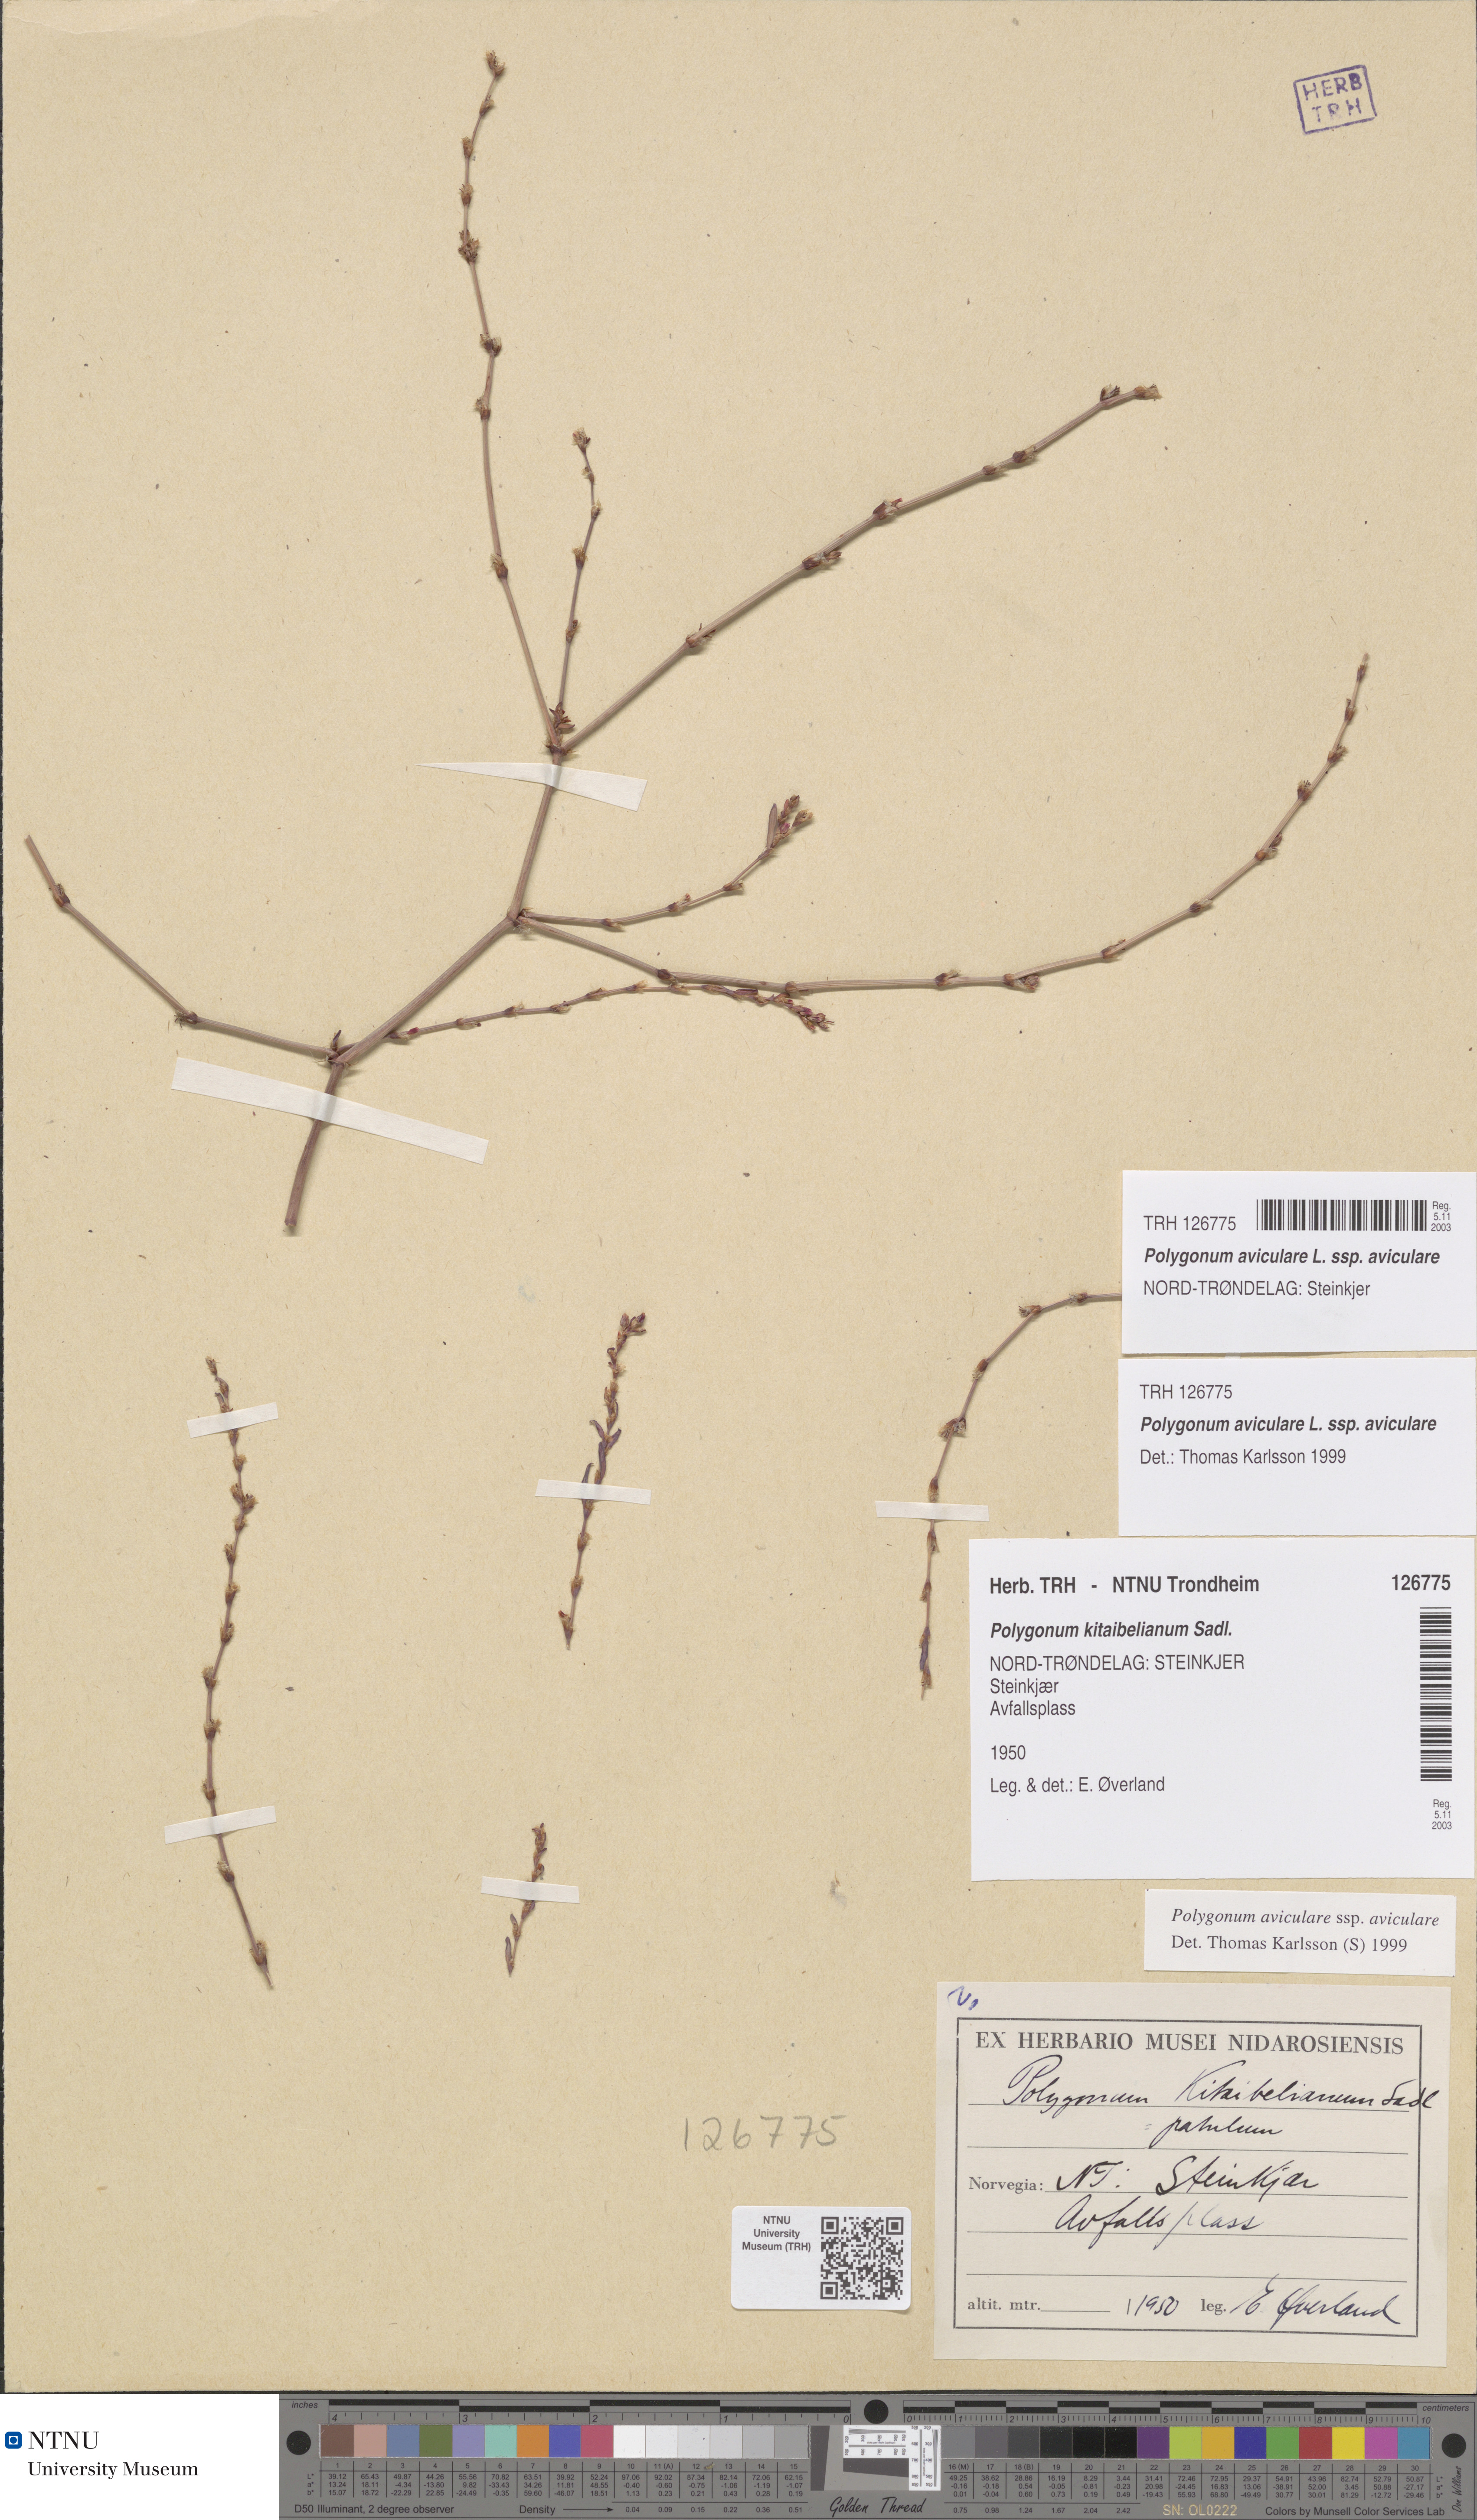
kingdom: Plantae
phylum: Tracheophyta
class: Magnoliopsida
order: Caryophyllales
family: Polygonaceae
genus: Polygonum
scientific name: Polygonum aviculare
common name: Prostrate knotweed
